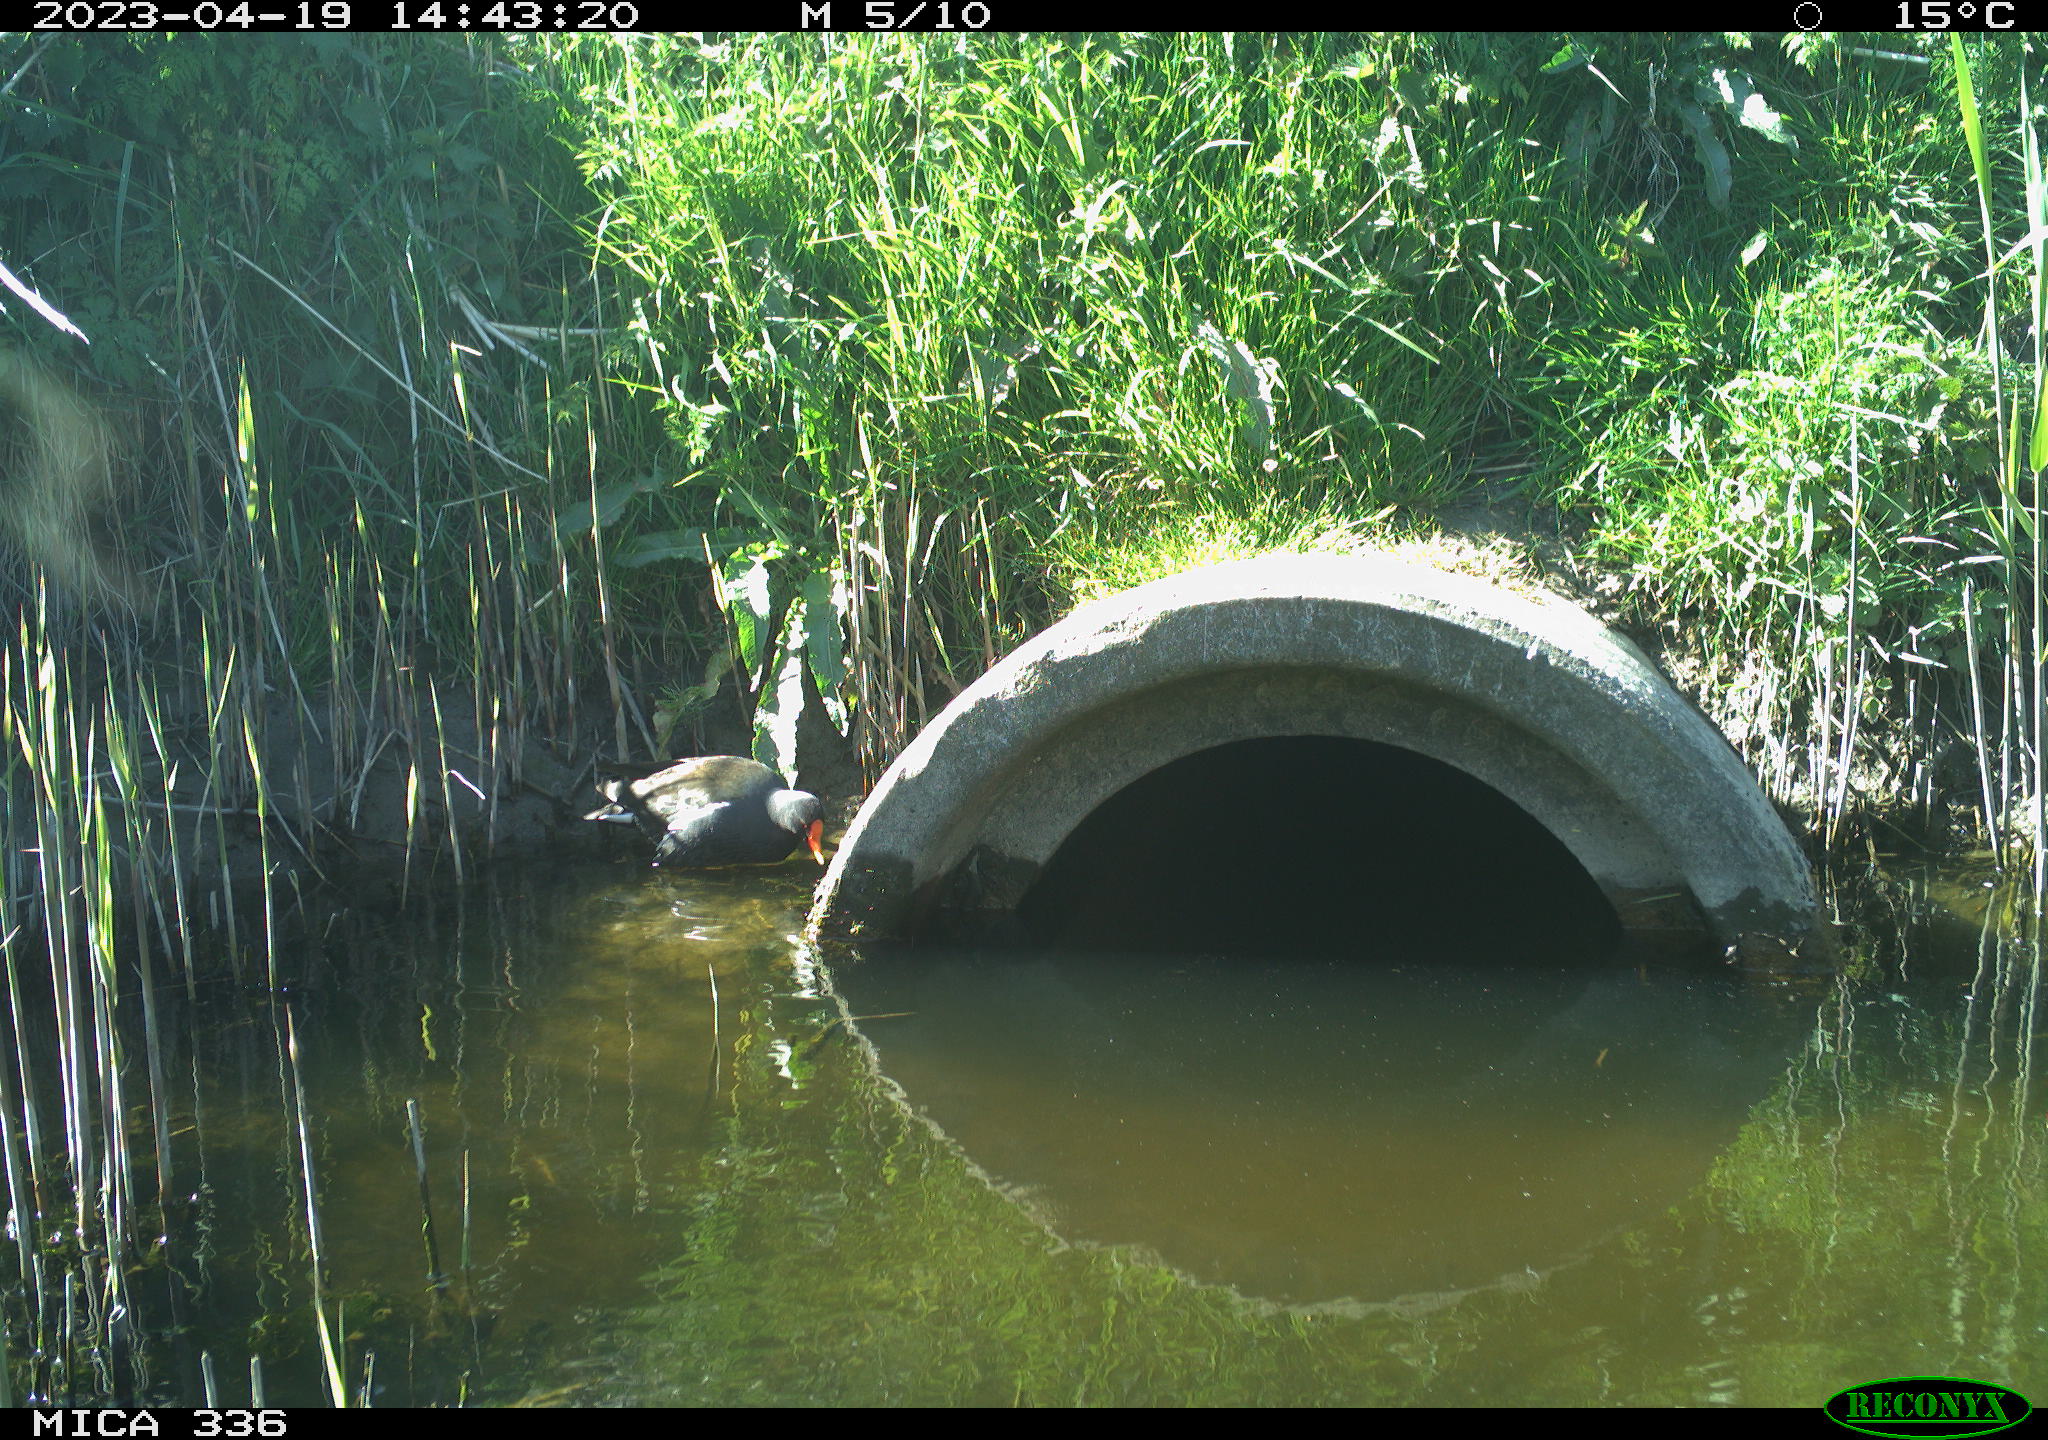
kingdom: Animalia
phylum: Chordata
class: Aves
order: Gruiformes
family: Rallidae
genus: Gallinula
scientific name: Gallinula chloropus
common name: Common moorhen
